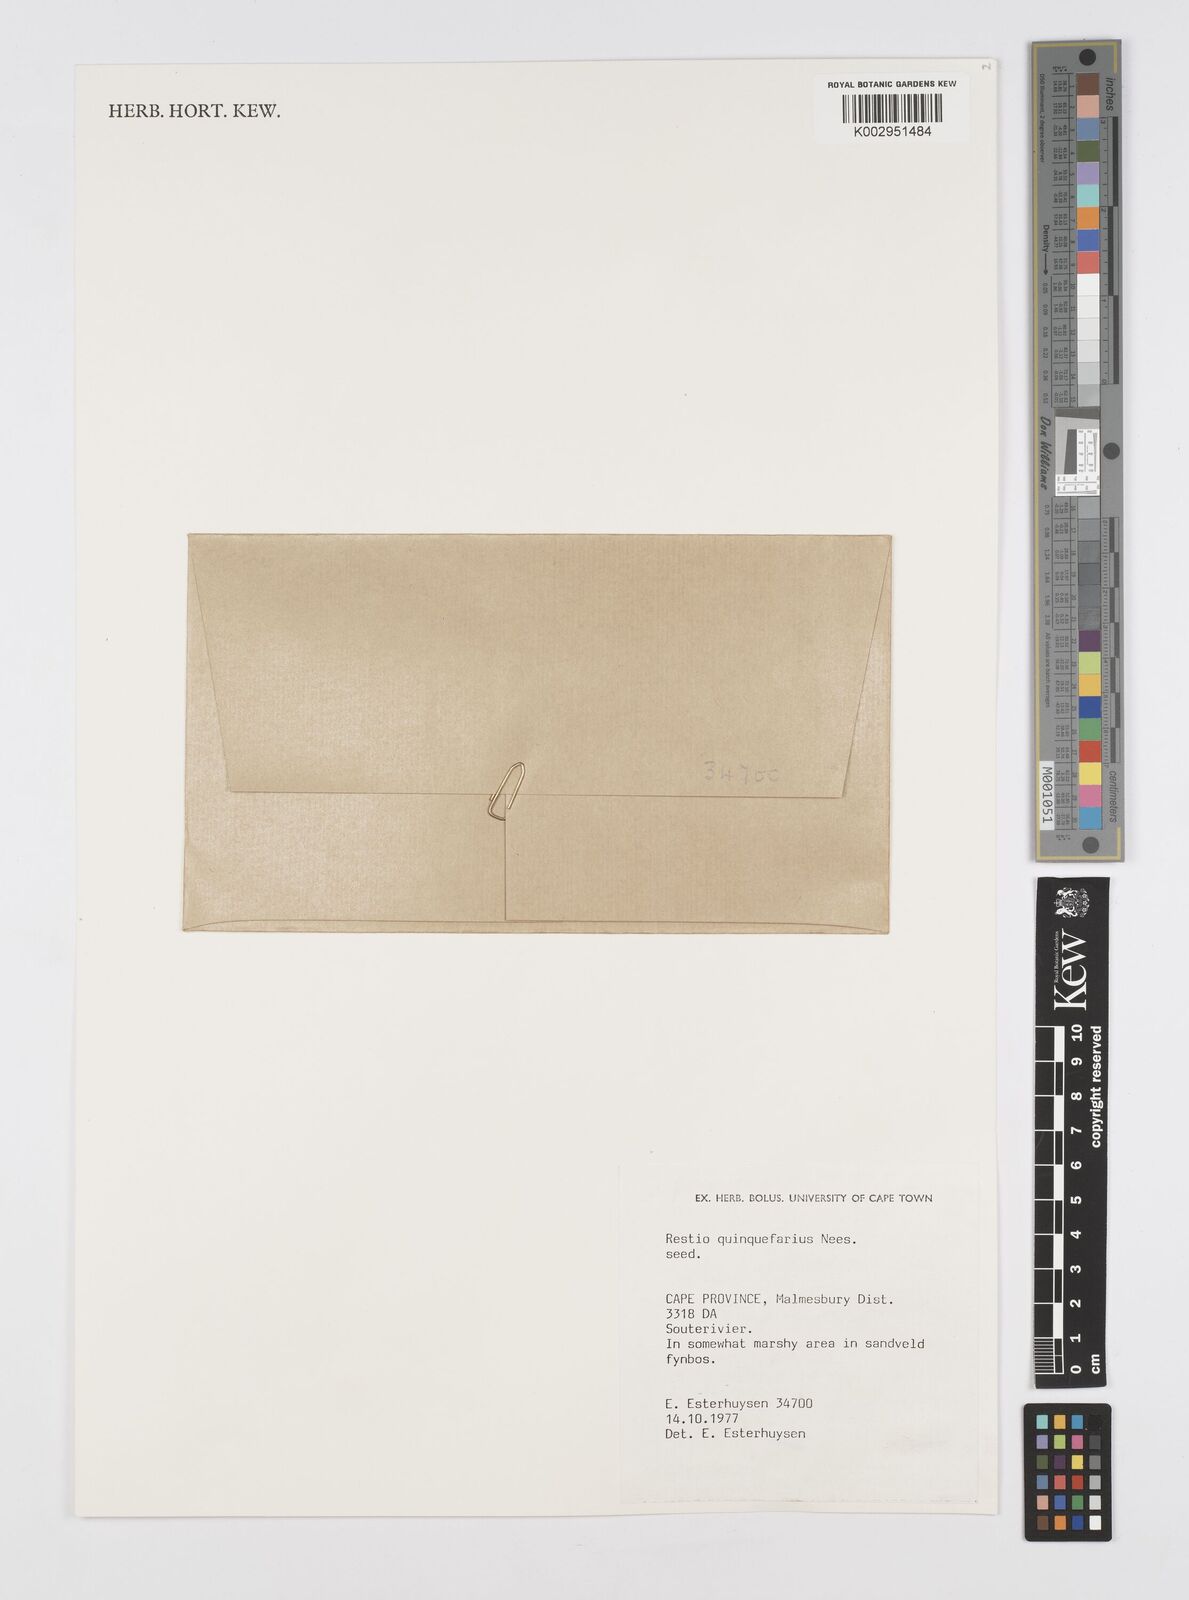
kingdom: Plantae
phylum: Tracheophyta
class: Liliopsida
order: Poales
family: Restionaceae
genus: Restio
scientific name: Restio quinquefarius
